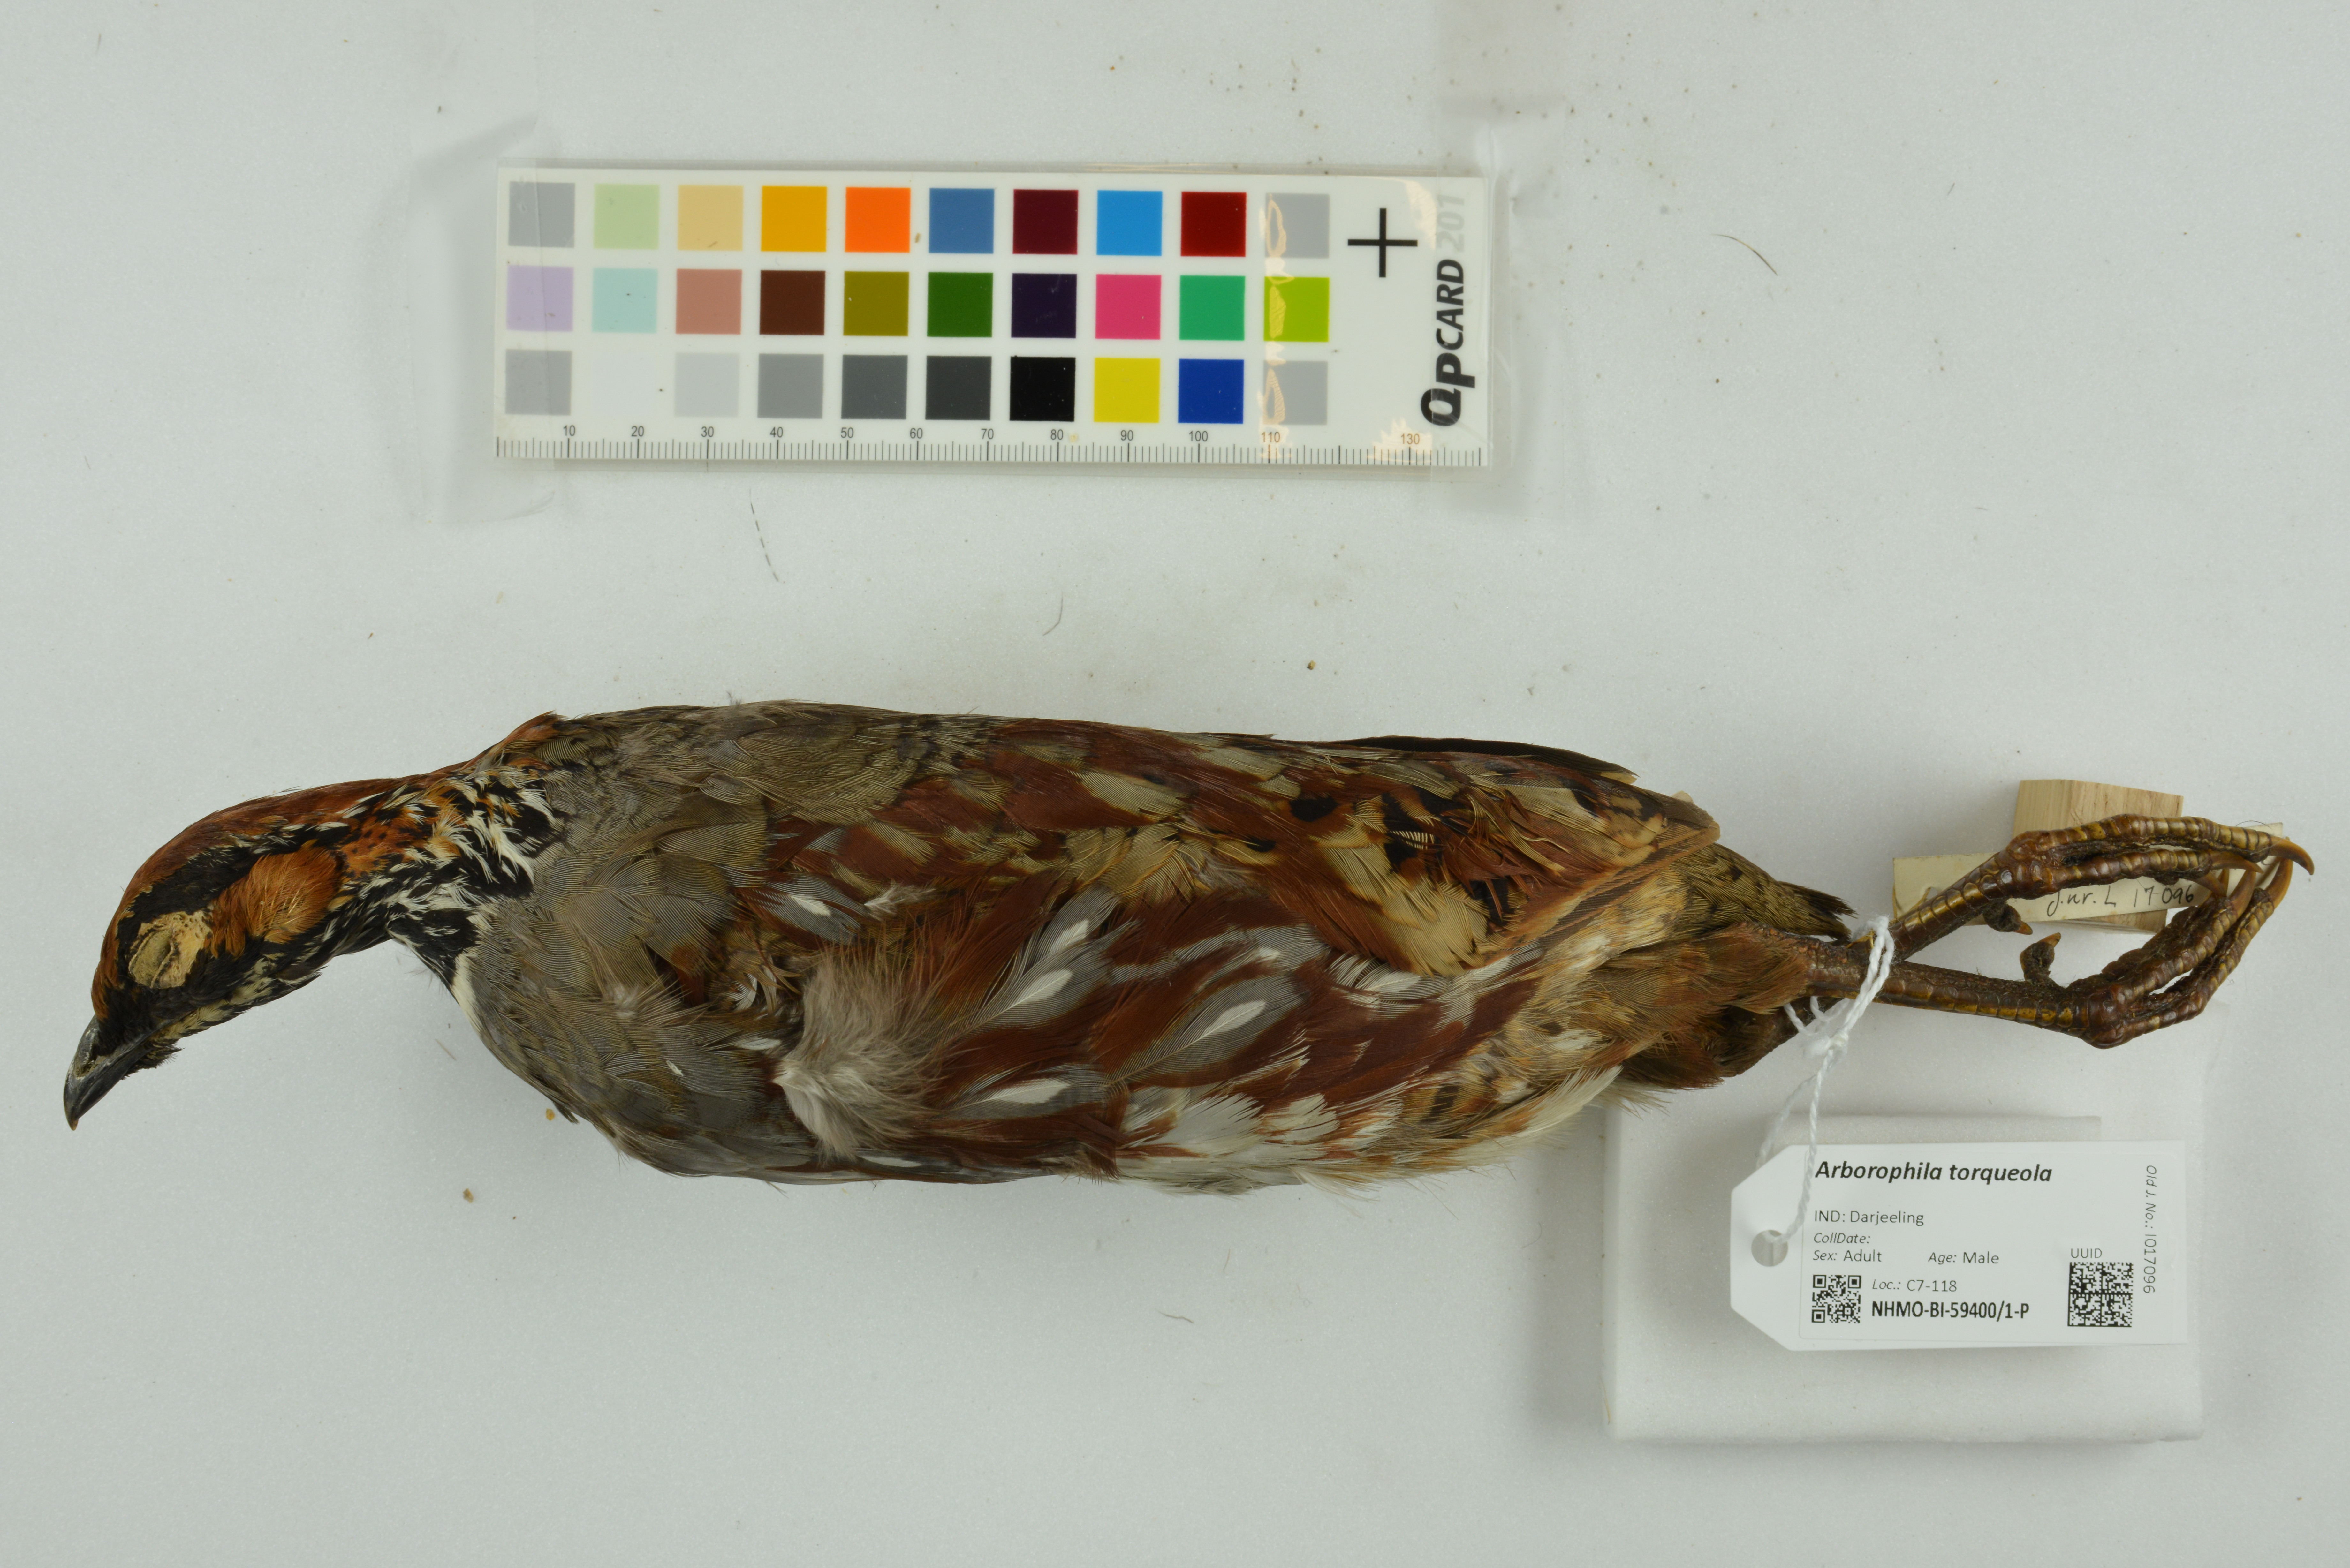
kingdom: Animalia
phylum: Chordata
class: Aves
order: Galliformes
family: Phasianidae
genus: Arborophila
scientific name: Arborophila torqueola
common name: Hill partridge
